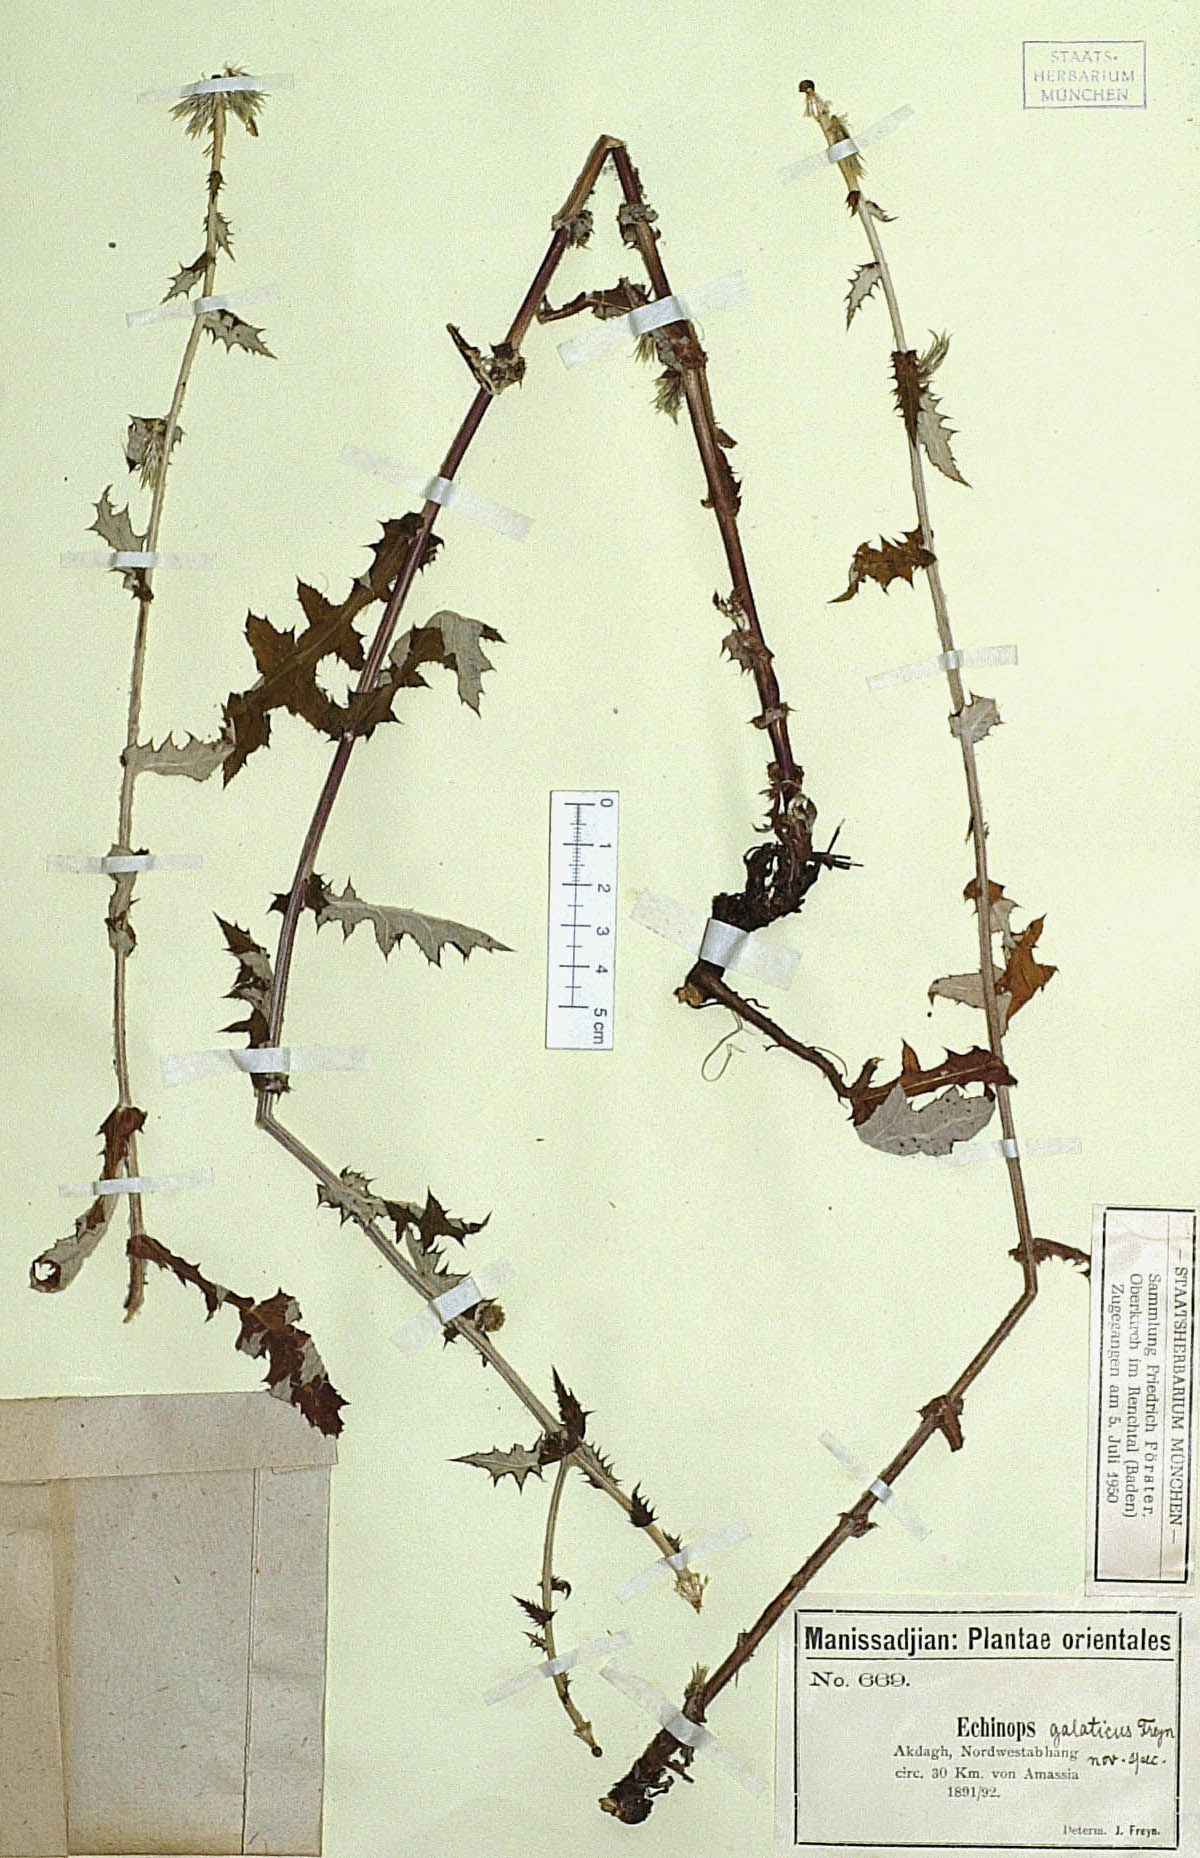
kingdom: Plantae
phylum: Tracheophyta
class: Magnoliopsida
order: Asterales
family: Asteraceae
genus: Echinops
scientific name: Echinops ossicus
